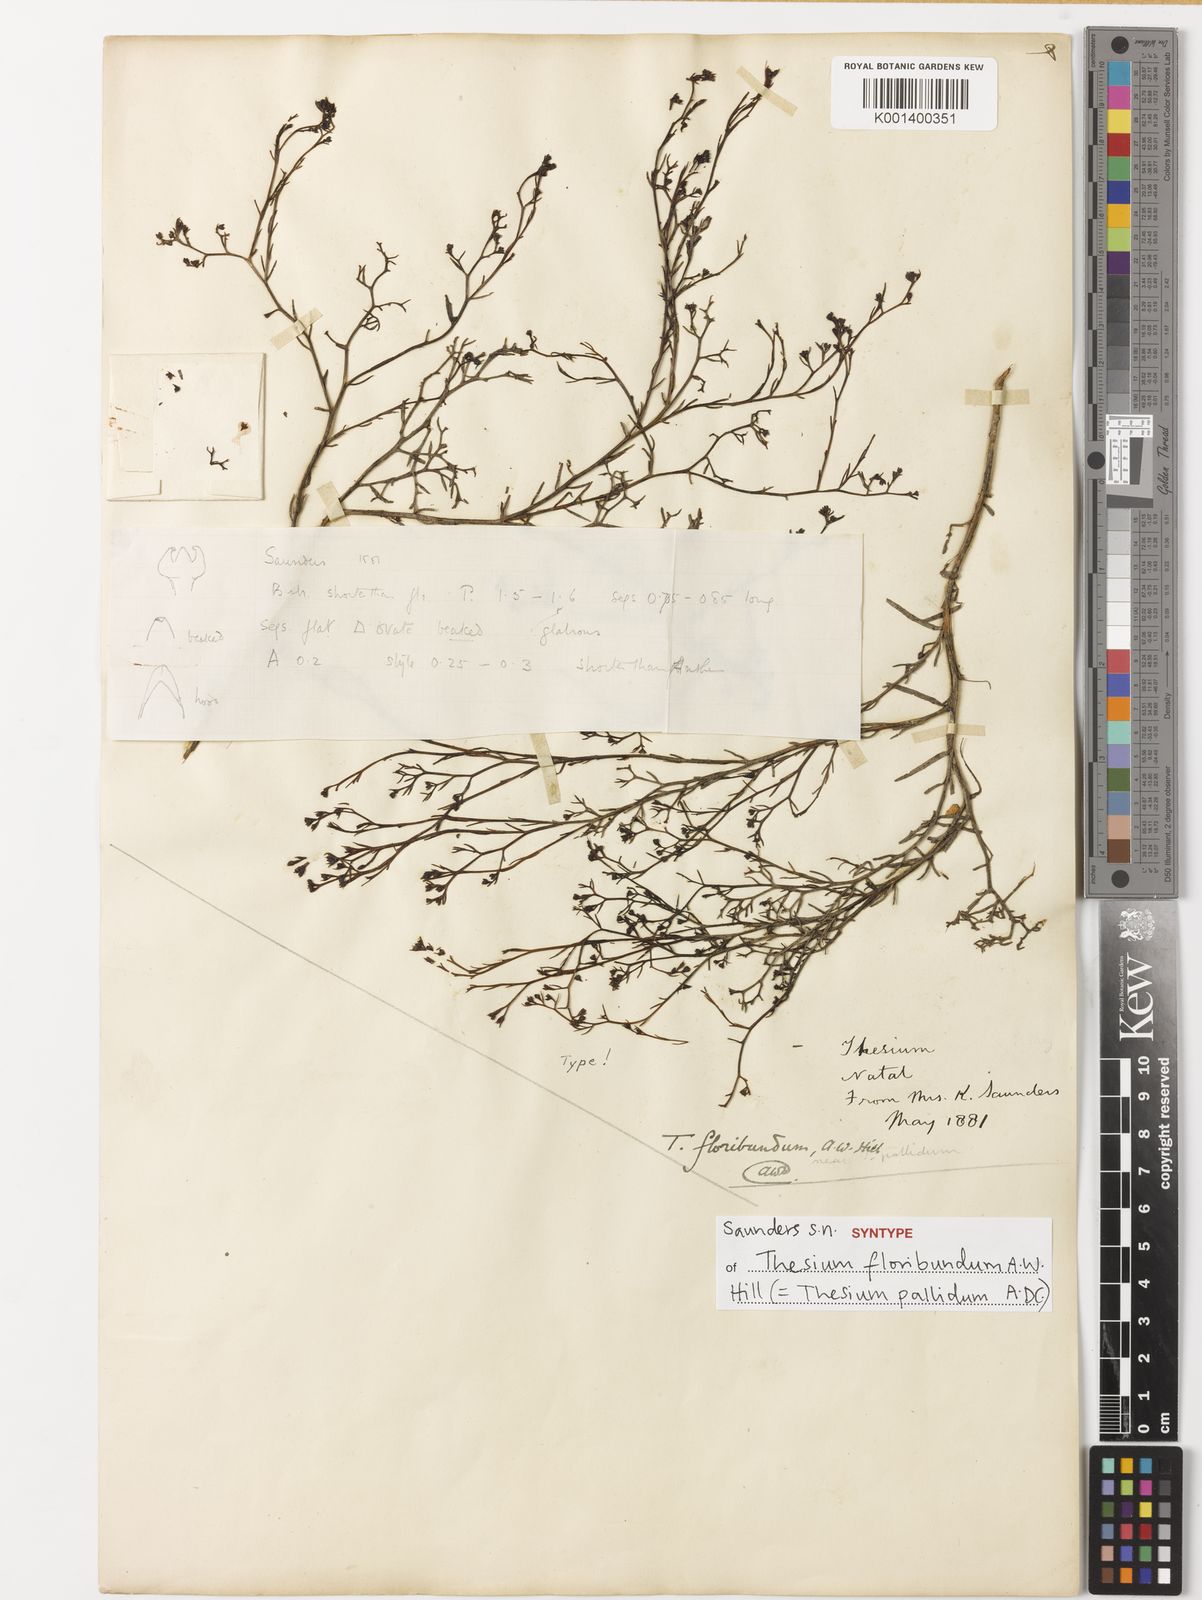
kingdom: Plantae
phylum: Tracheophyta
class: Magnoliopsida
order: Santalales
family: Thesiaceae
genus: Thesium
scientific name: Thesium pallidum
